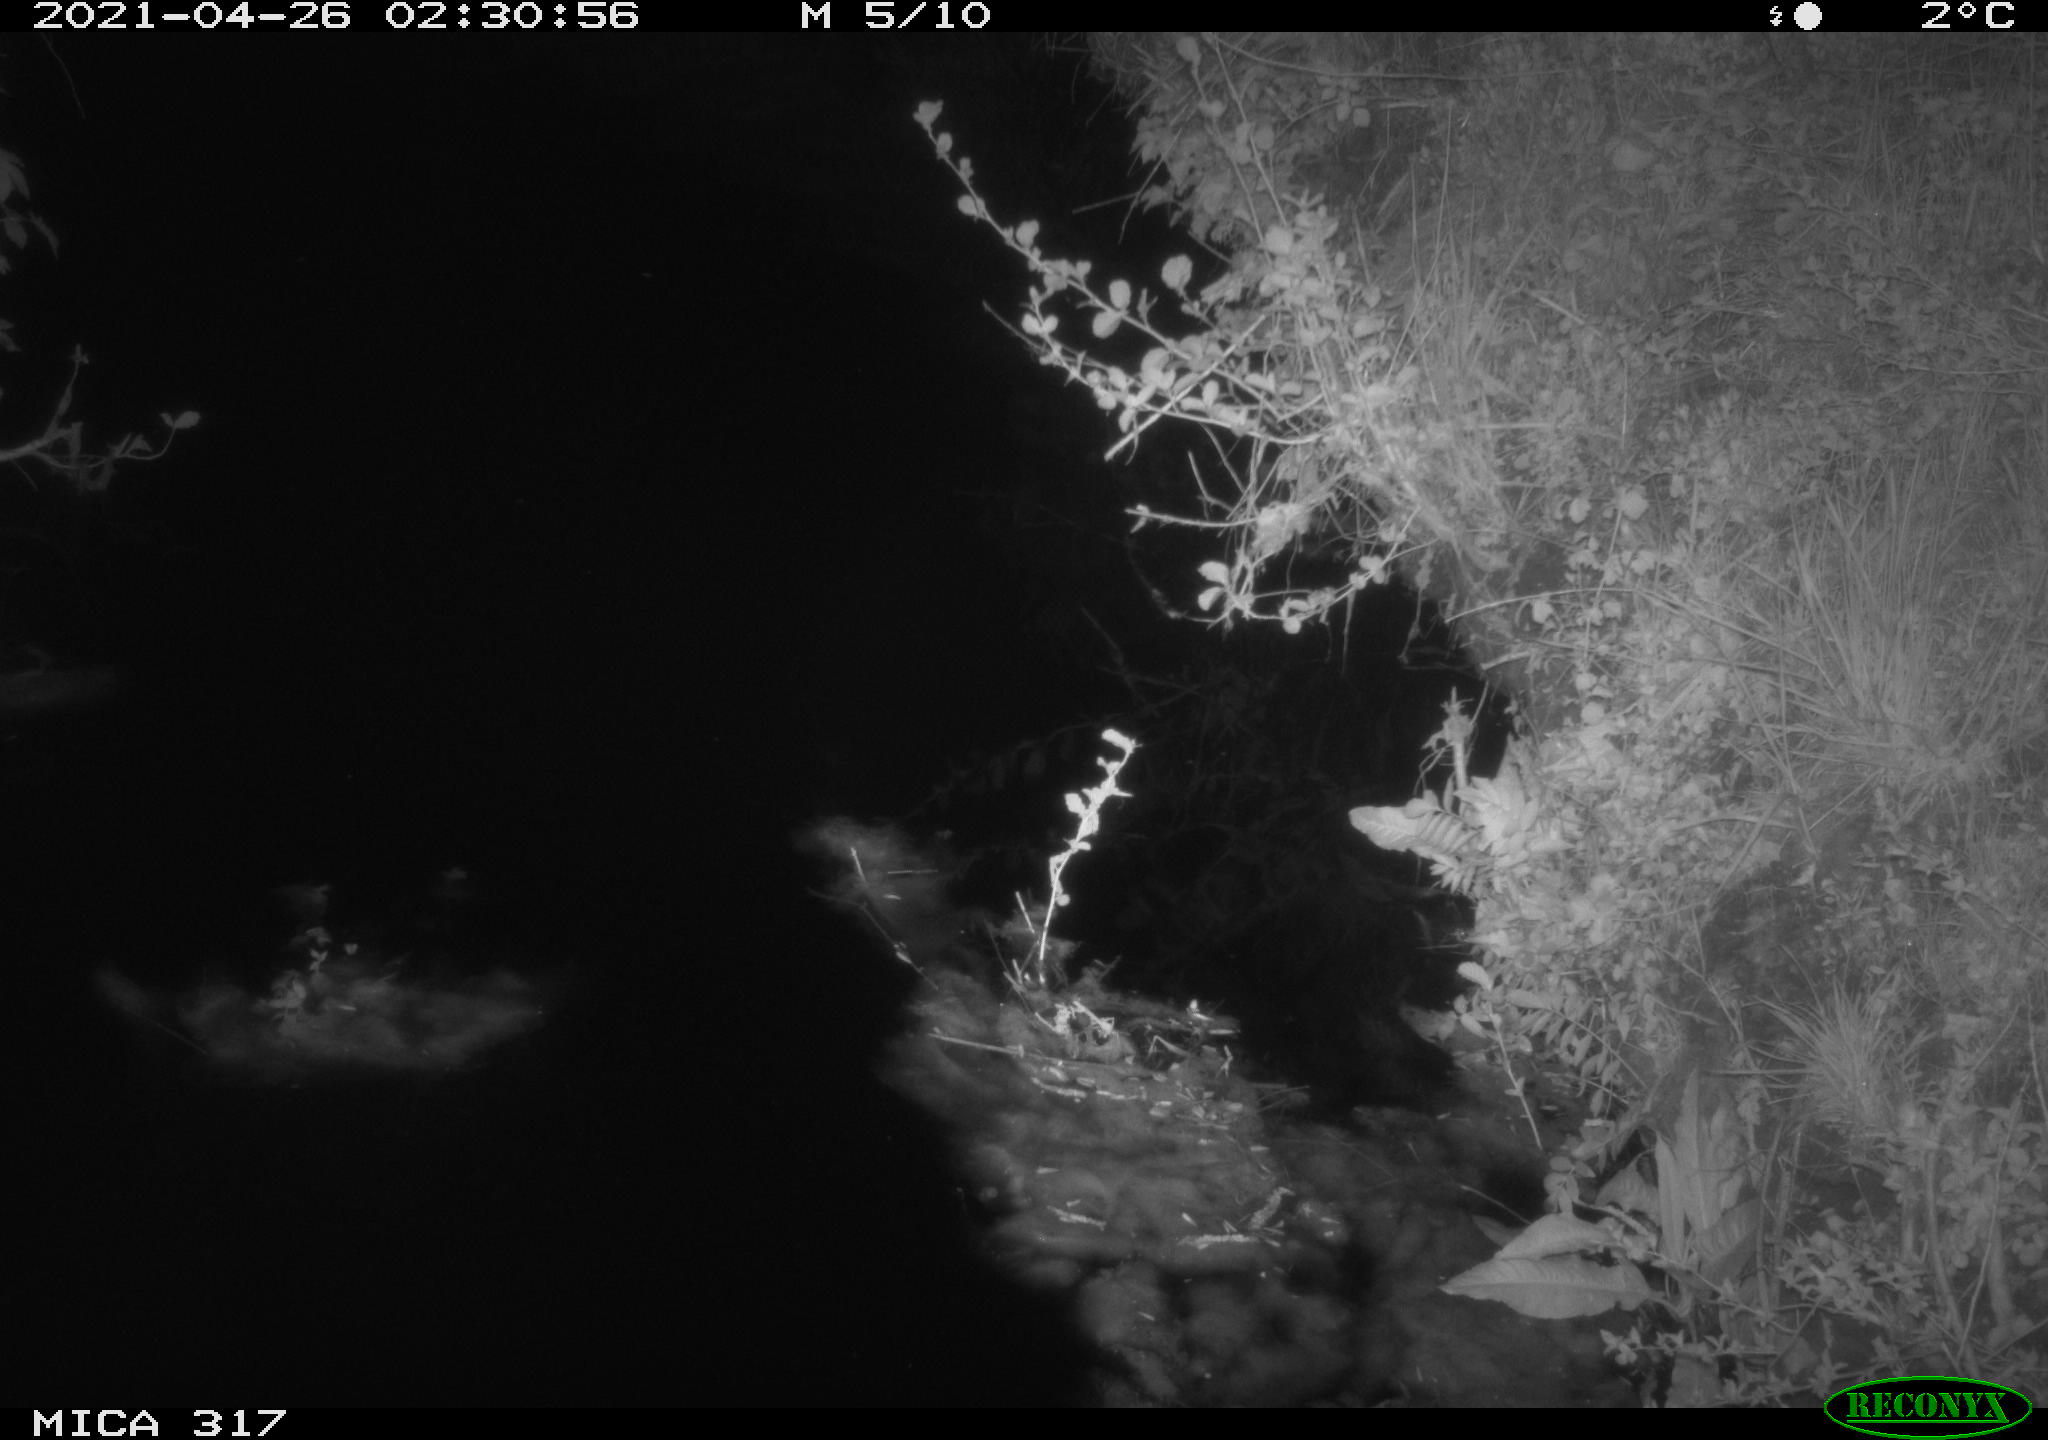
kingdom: Animalia
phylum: Chordata
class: Aves
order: Anseriformes
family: Anatidae
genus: Anas
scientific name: Anas
